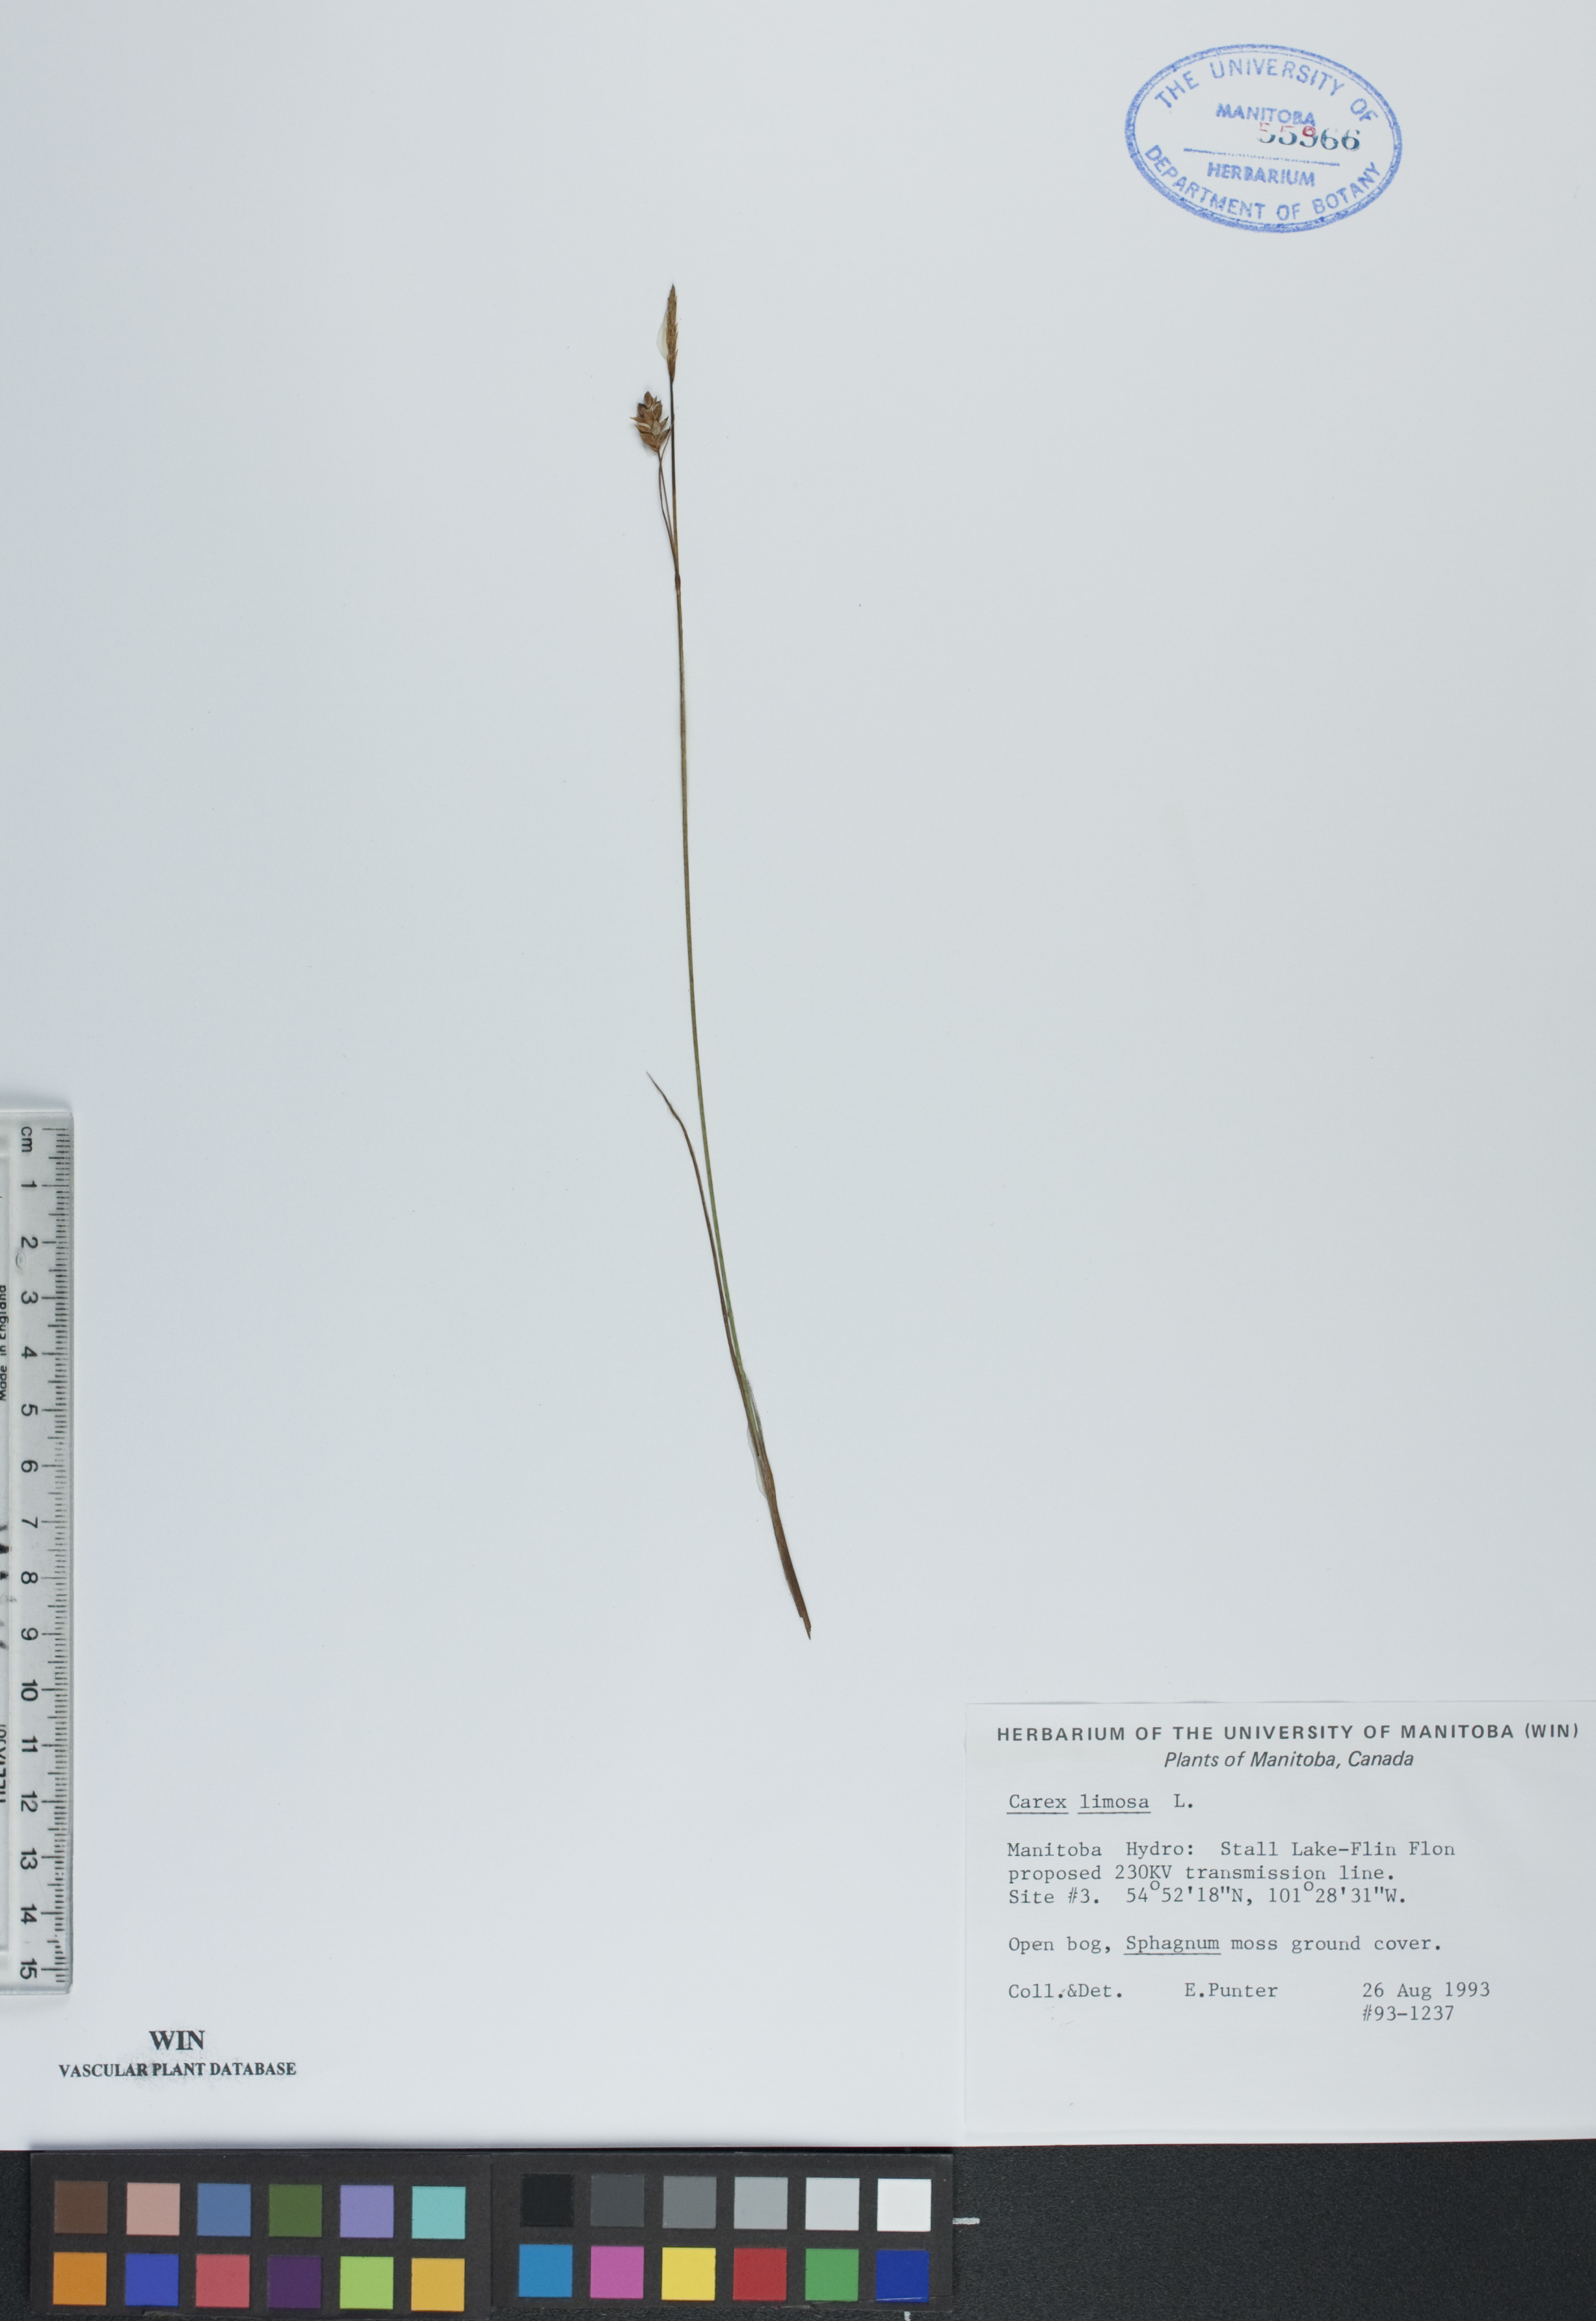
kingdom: Plantae
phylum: Tracheophyta
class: Liliopsida
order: Poales
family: Cyperaceae
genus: Carex
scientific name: Carex limosa
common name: Bog sedge
